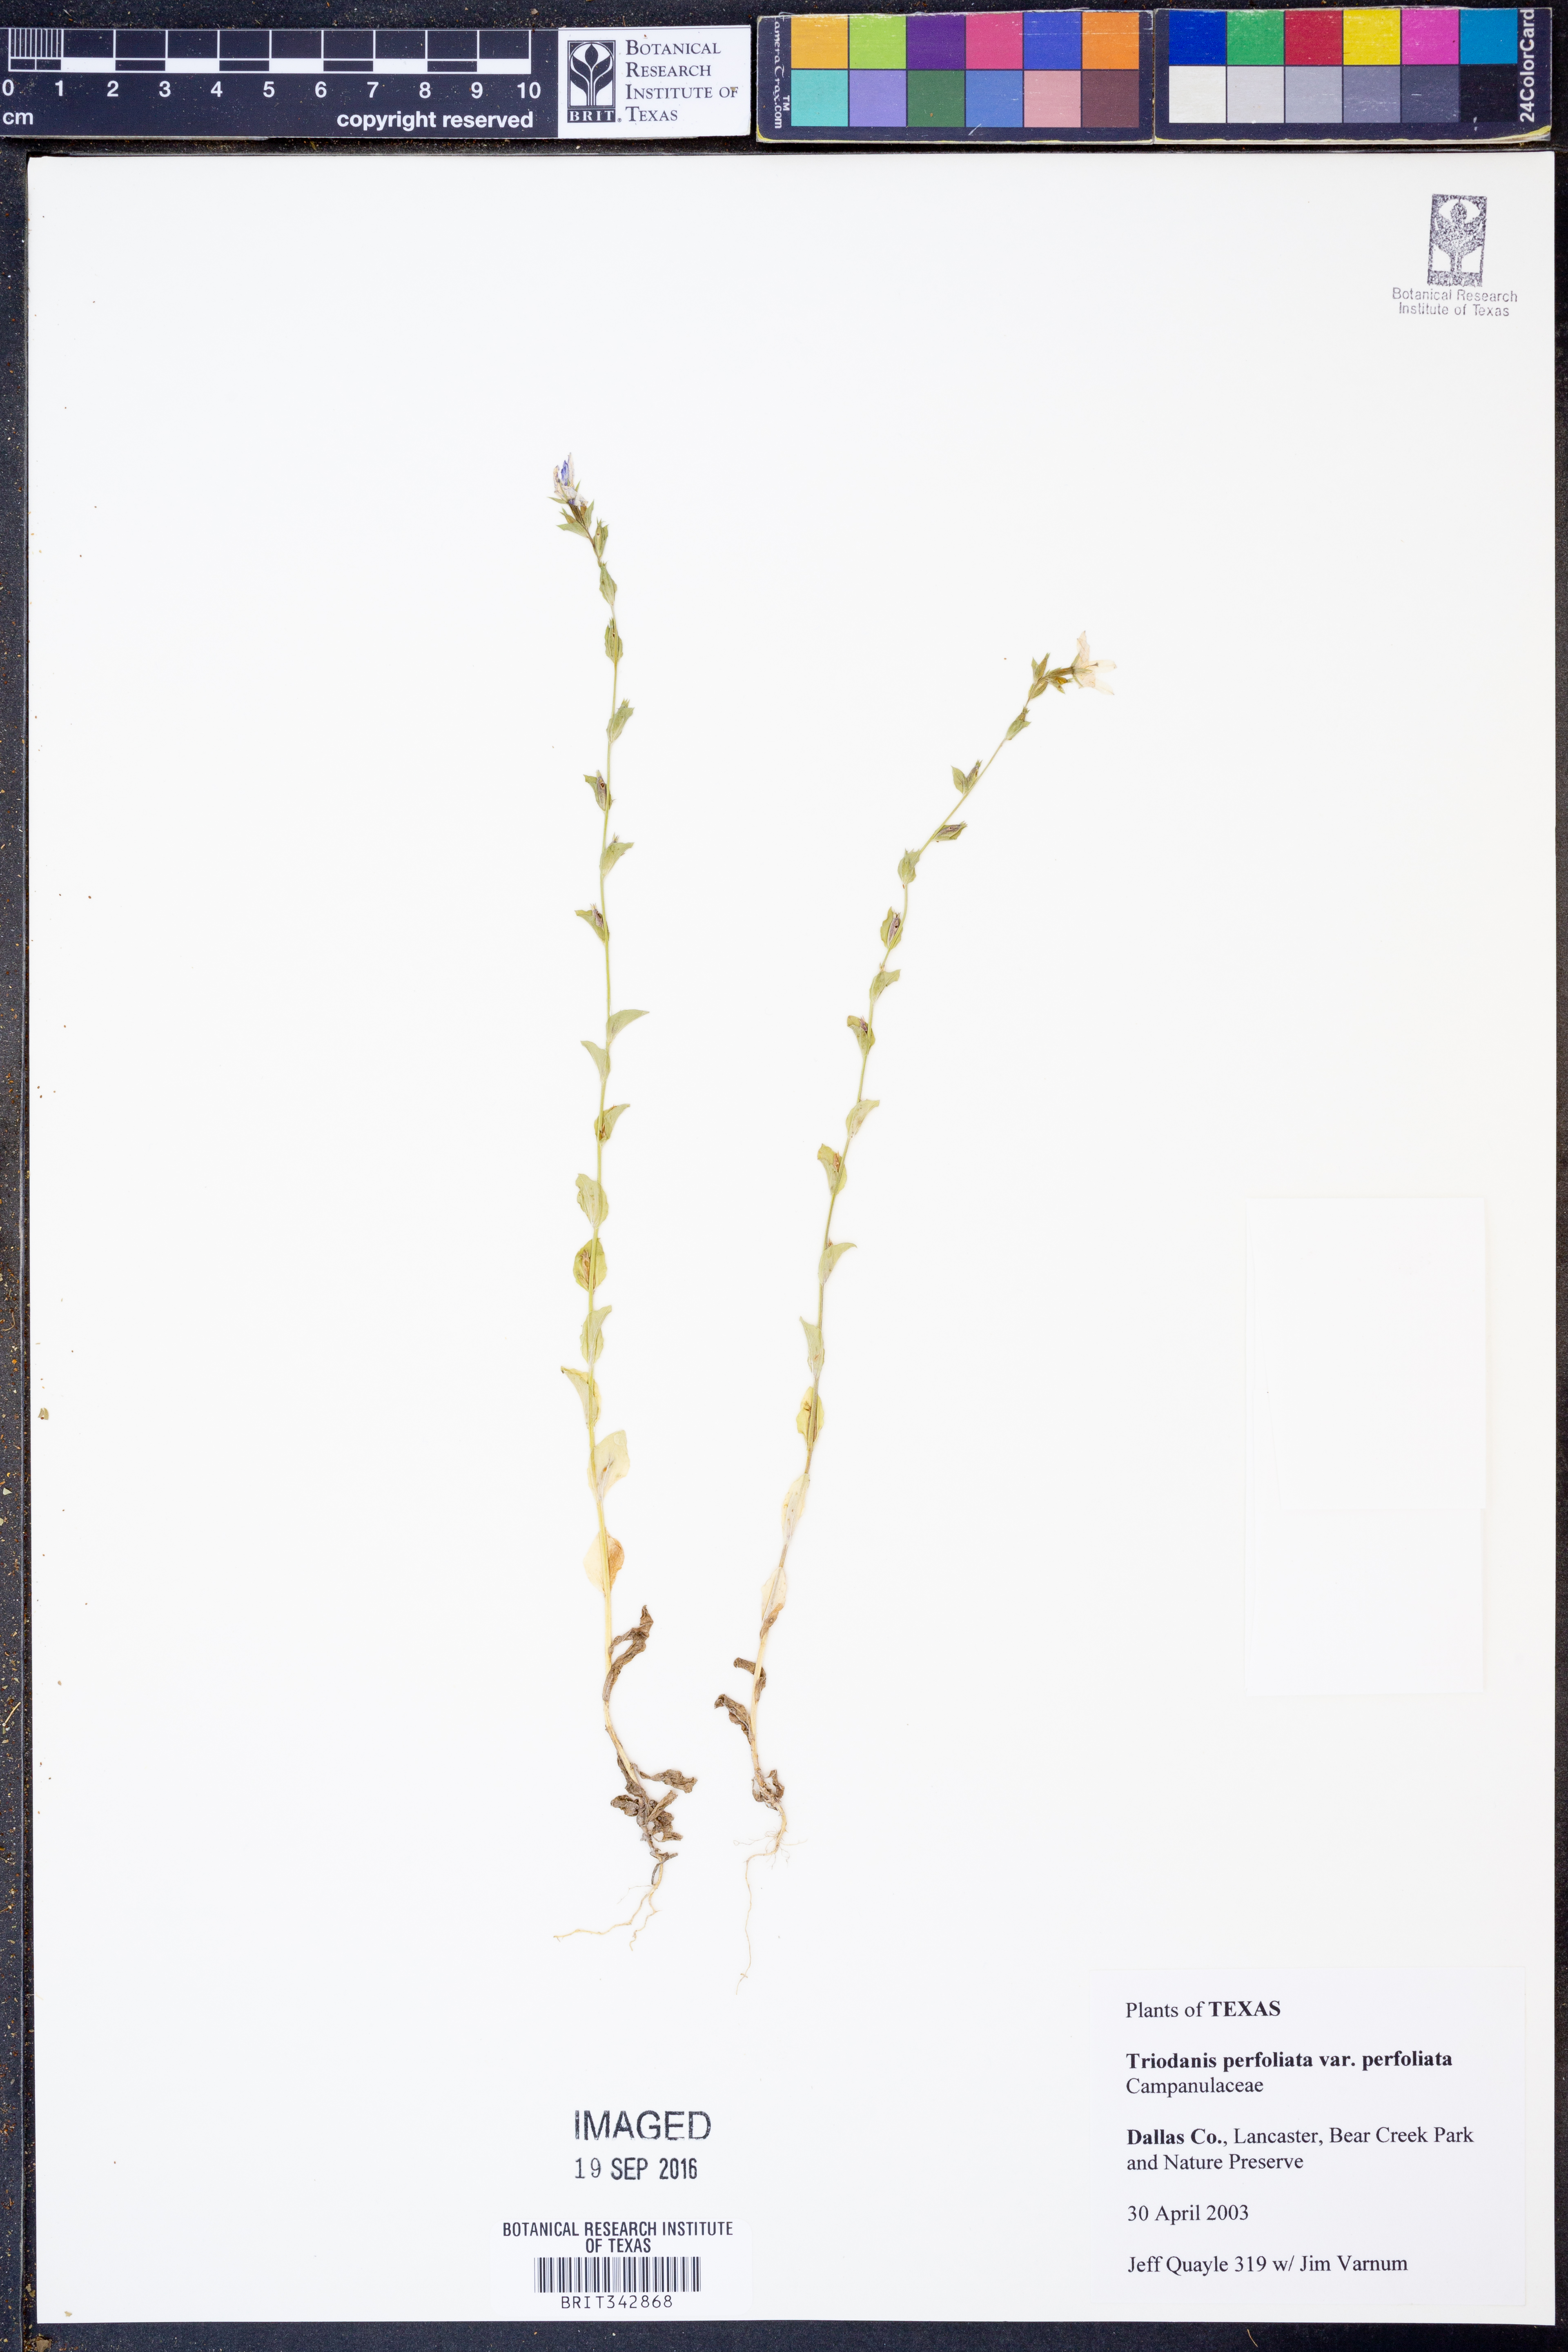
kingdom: Plantae
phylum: Tracheophyta
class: Magnoliopsida
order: Asterales
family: Campanulaceae
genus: Triodanis
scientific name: Triodanis perfoliata
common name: Clasping venus' looking-glass
